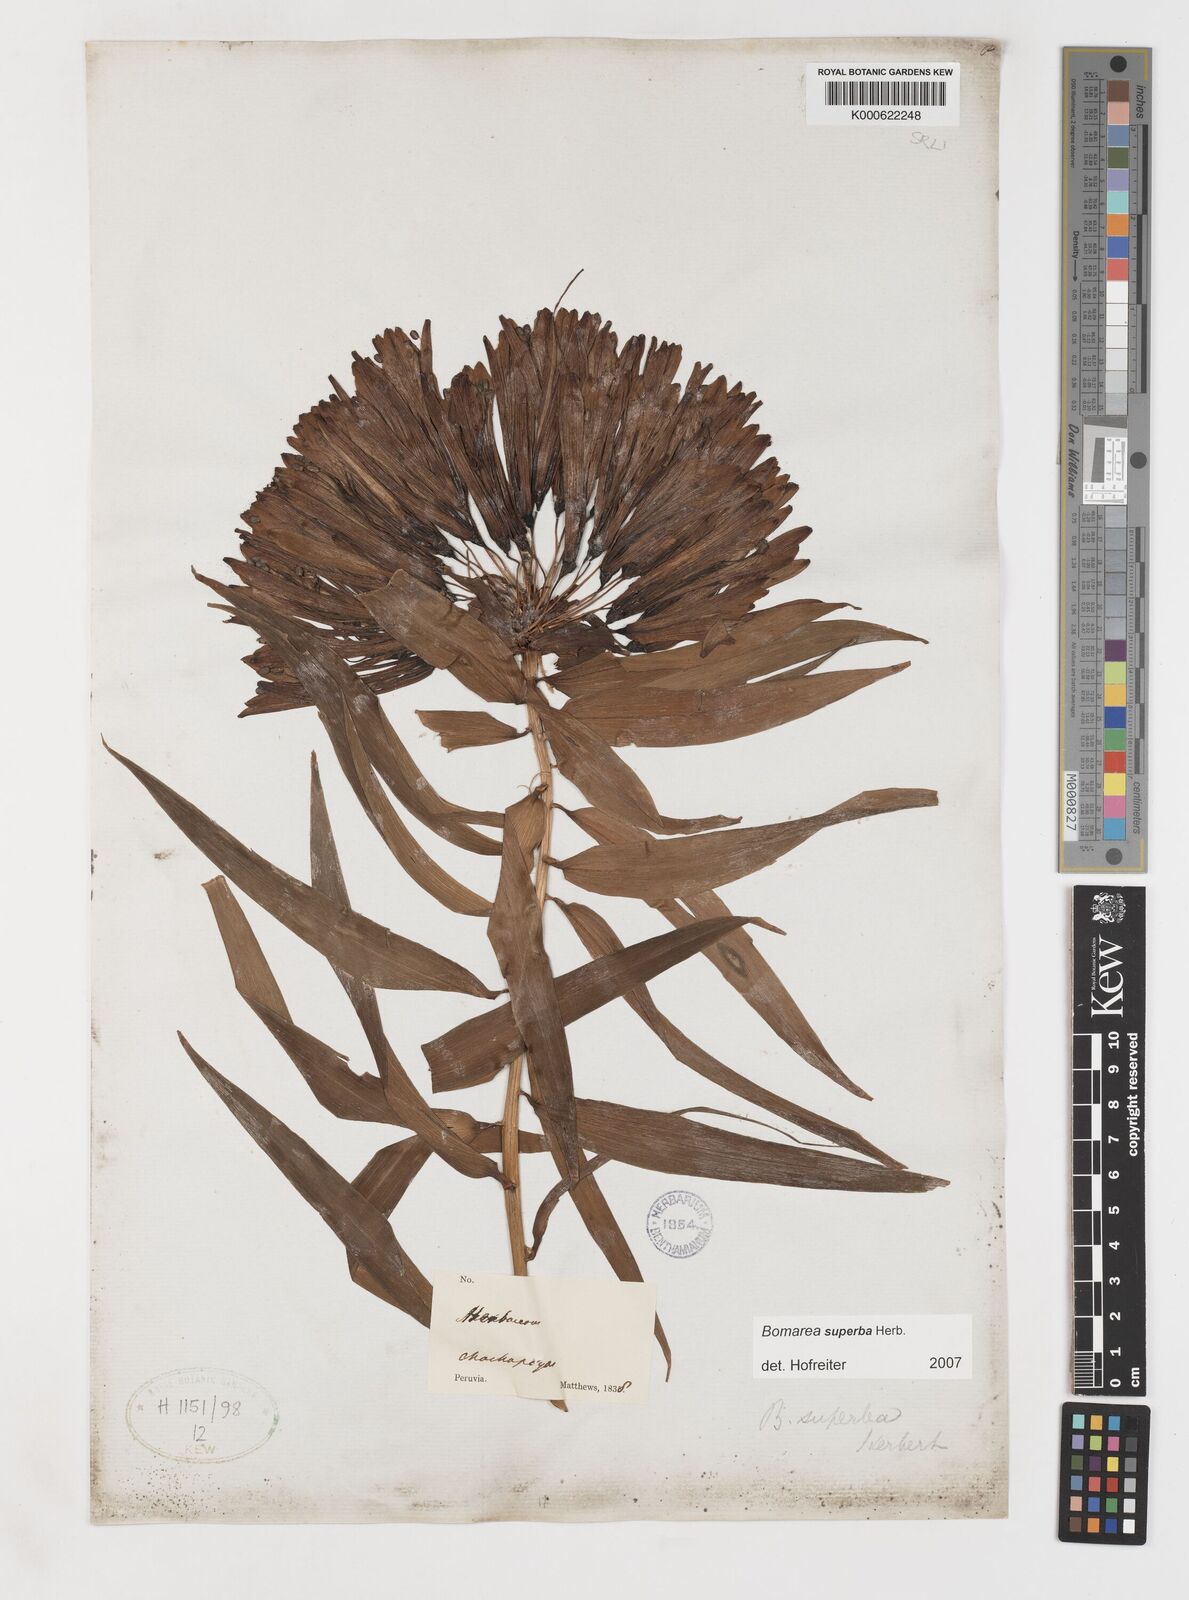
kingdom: Plantae
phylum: Tracheophyta
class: Liliopsida
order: Liliales
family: Alstroemeriaceae
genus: Bomarea
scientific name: Bomarea superba
